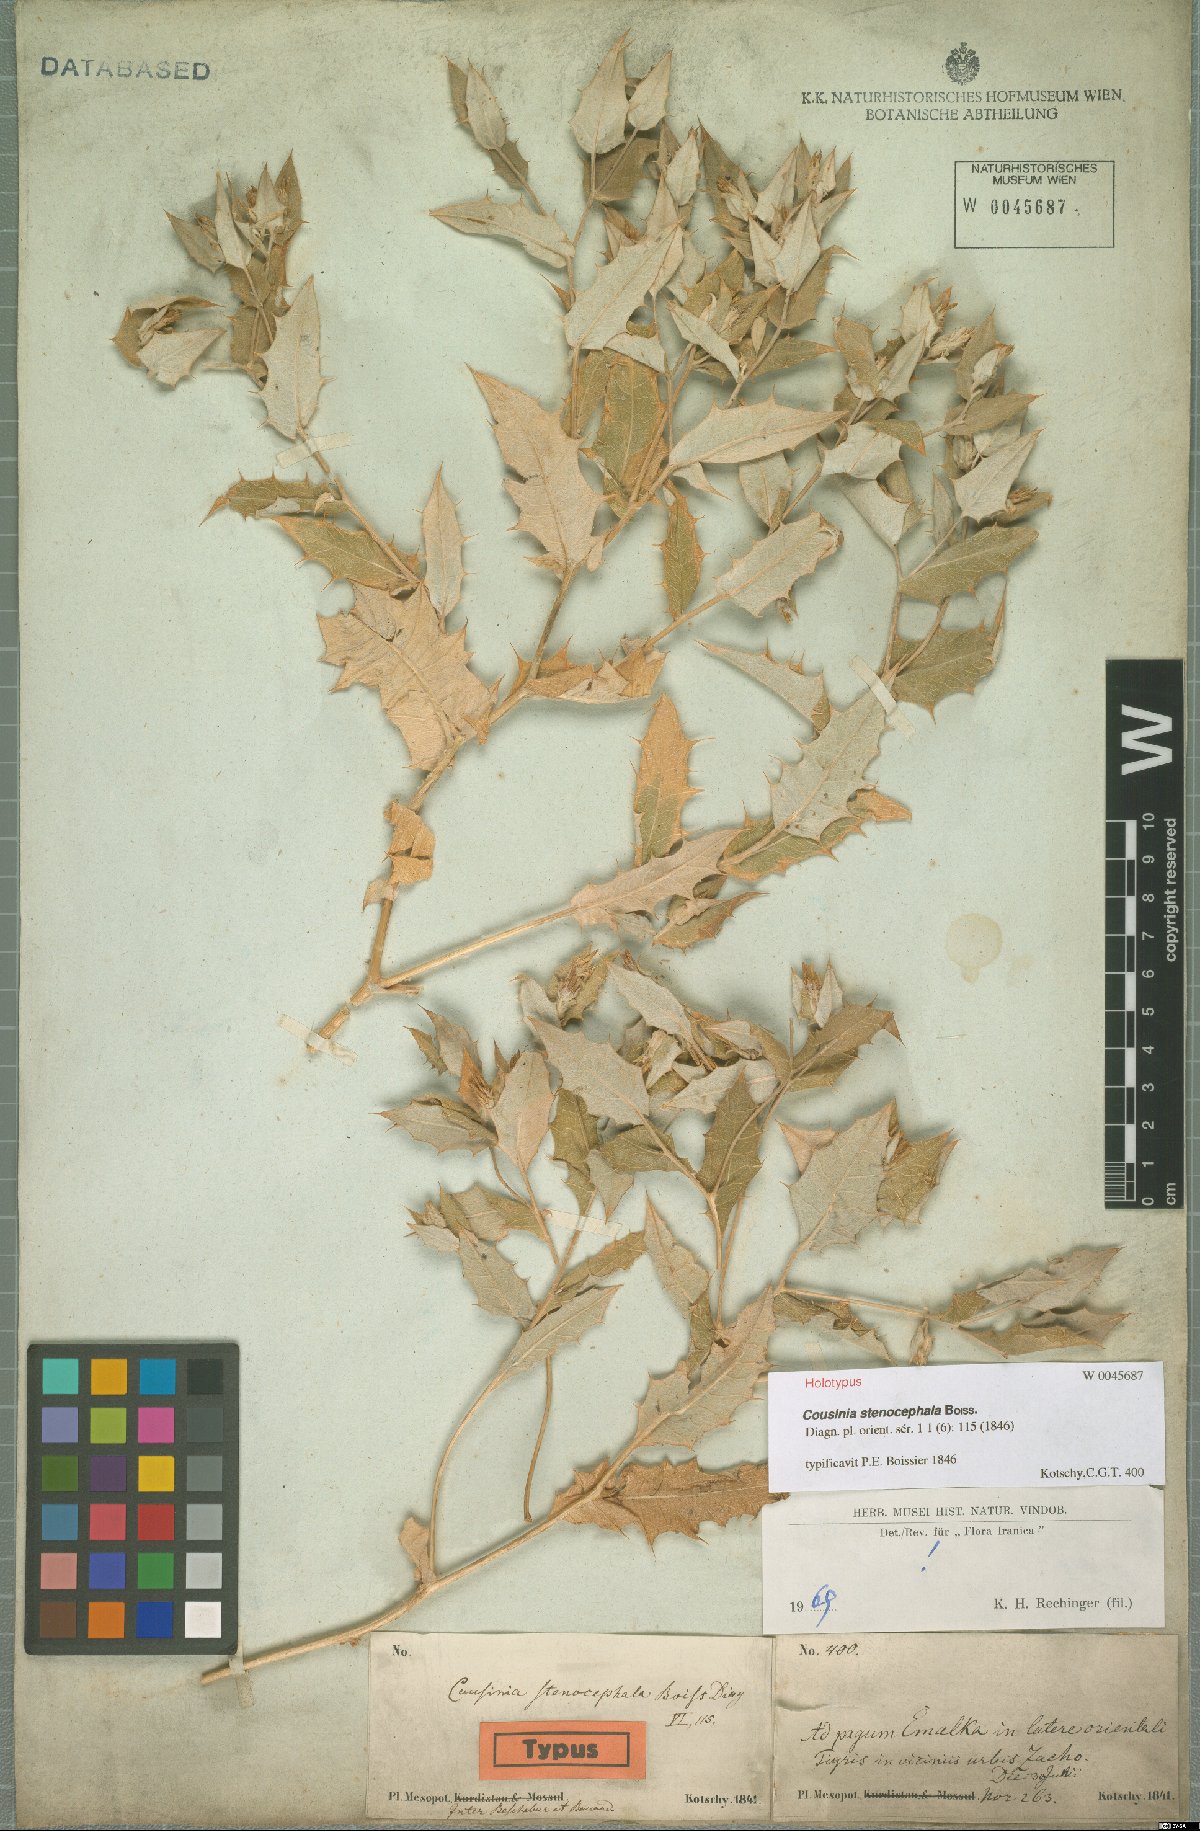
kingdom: Plantae
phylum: Tracheophyta
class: Magnoliopsida
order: Asterales
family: Asteraceae
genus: Cousinia
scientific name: Cousinia stenocephala
